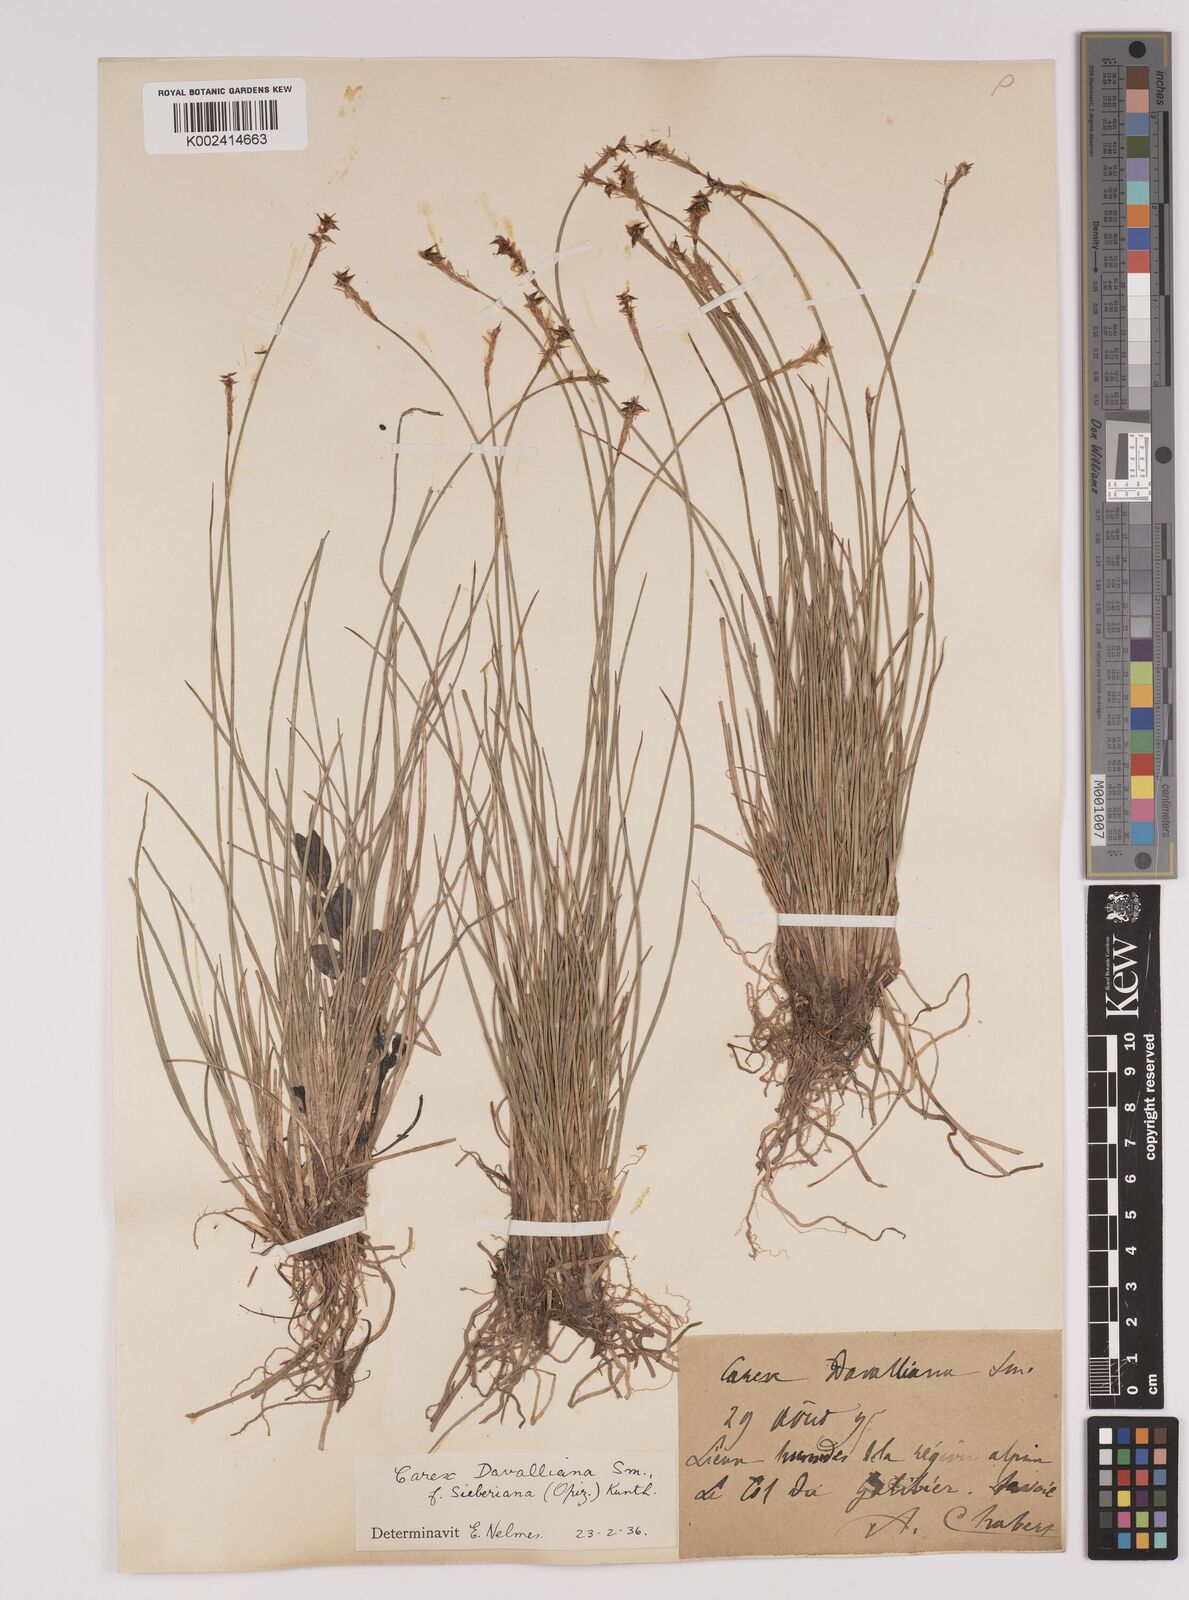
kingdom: Plantae
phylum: Tracheophyta
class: Liliopsida
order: Poales
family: Cyperaceae
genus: Carex
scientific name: Carex davalliana
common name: Davall's sedge
